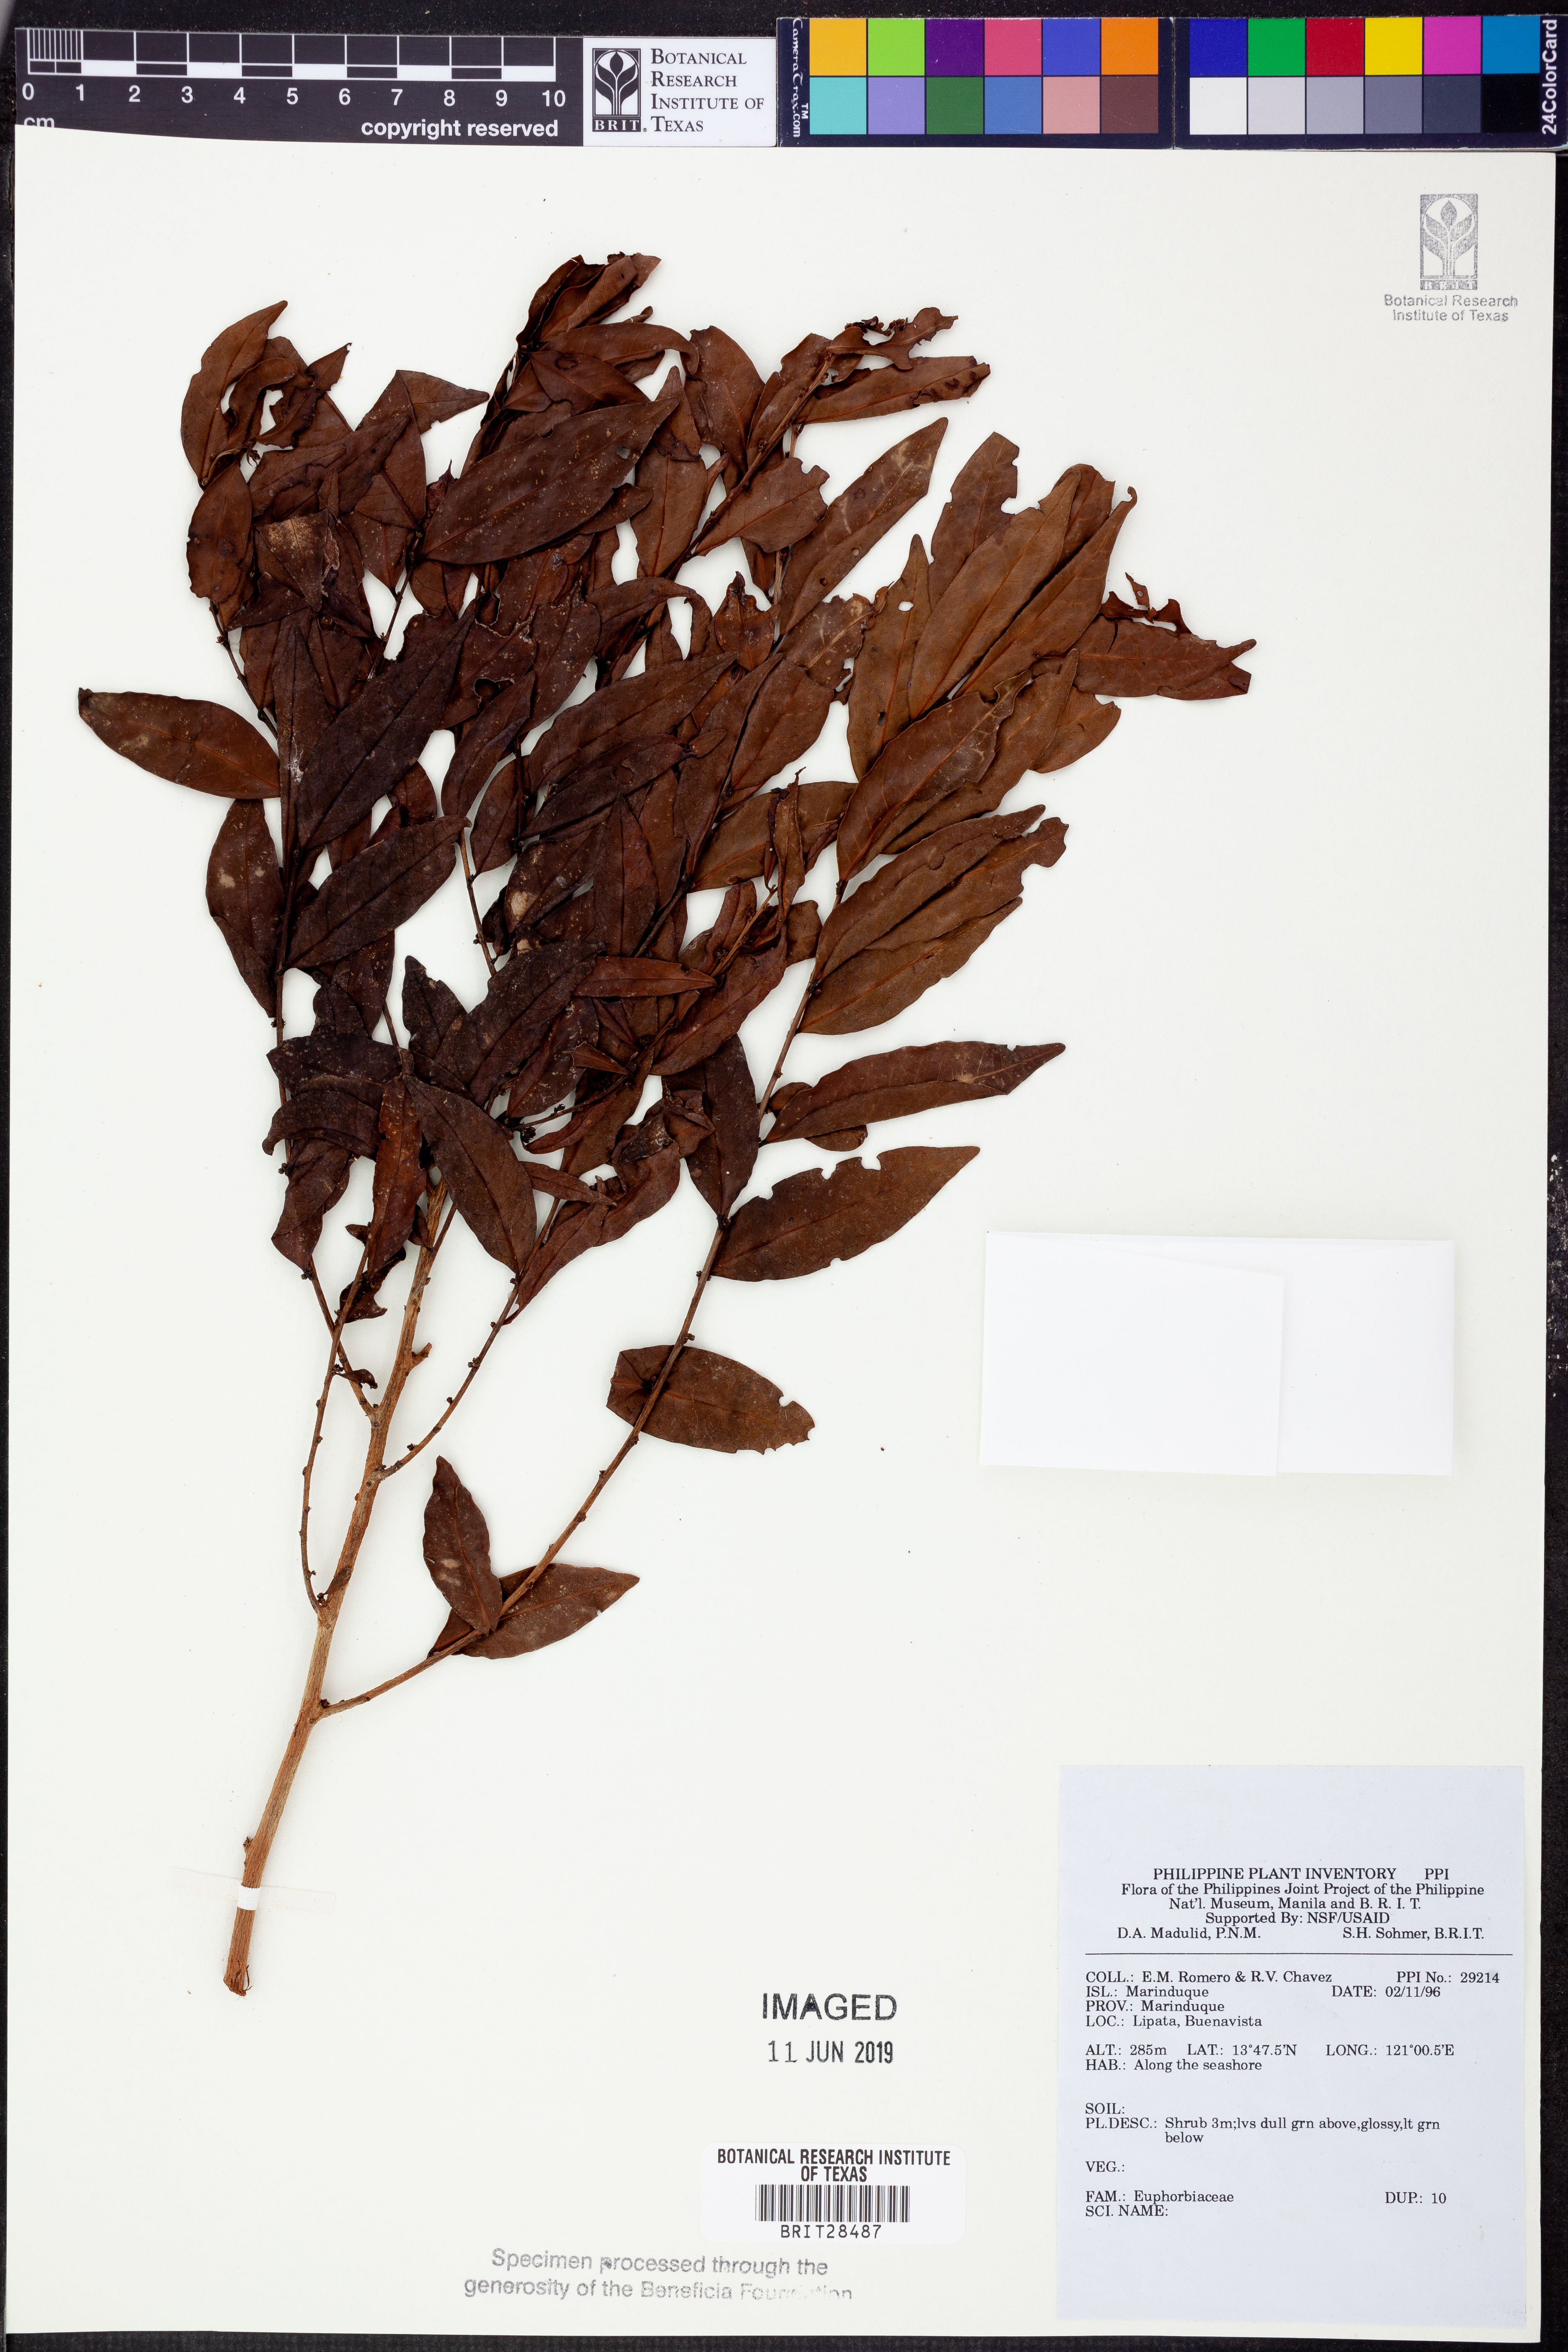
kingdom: Plantae
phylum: Tracheophyta
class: Magnoliopsida
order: Malpighiales
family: Euphorbiaceae
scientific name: Euphorbiaceae
